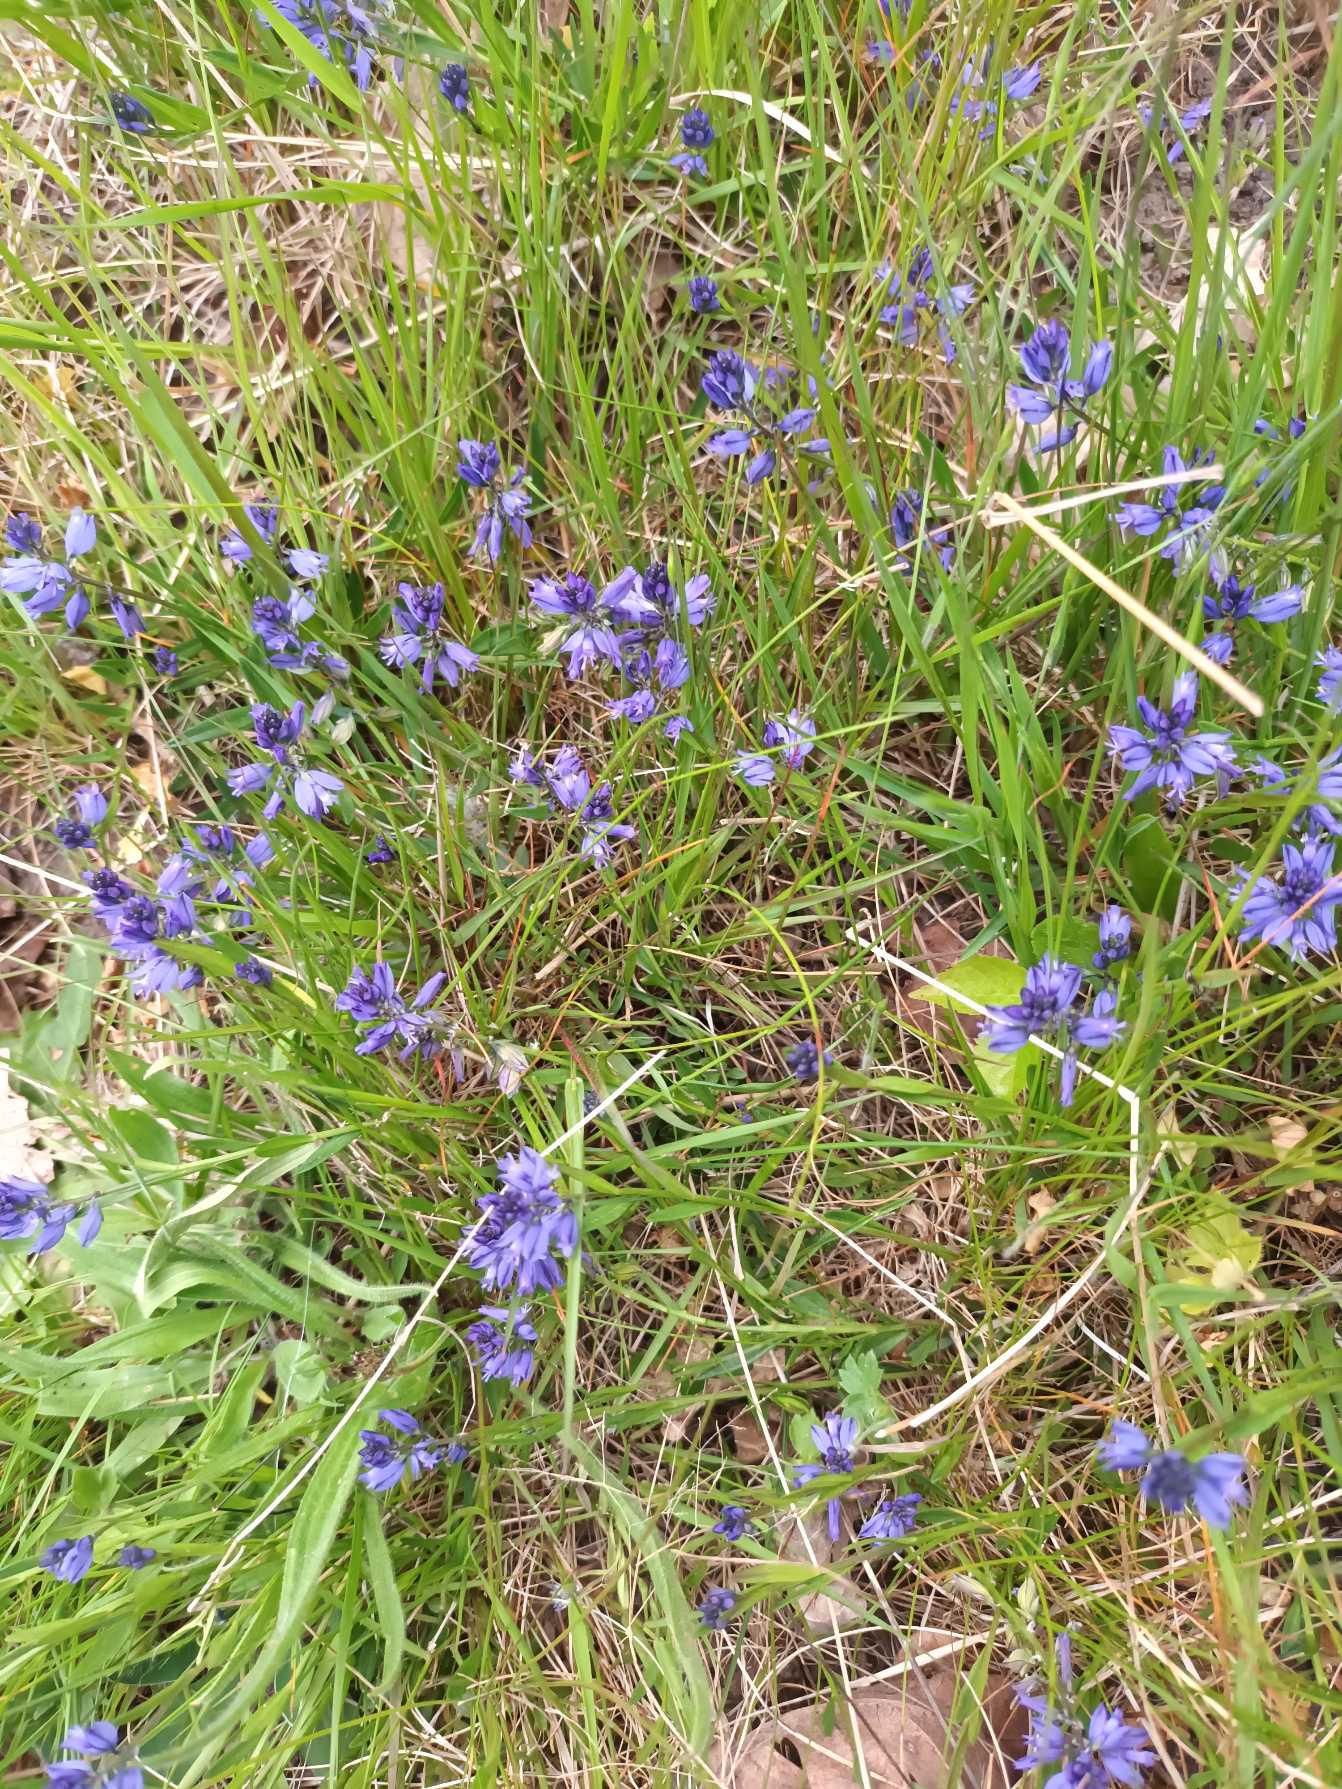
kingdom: Plantae
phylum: Tracheophyta
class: Magnoliopsida
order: Fabales
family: Polygalaceae
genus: Polygala
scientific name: Polygala vulgaris
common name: Almindelig mælkeurt
